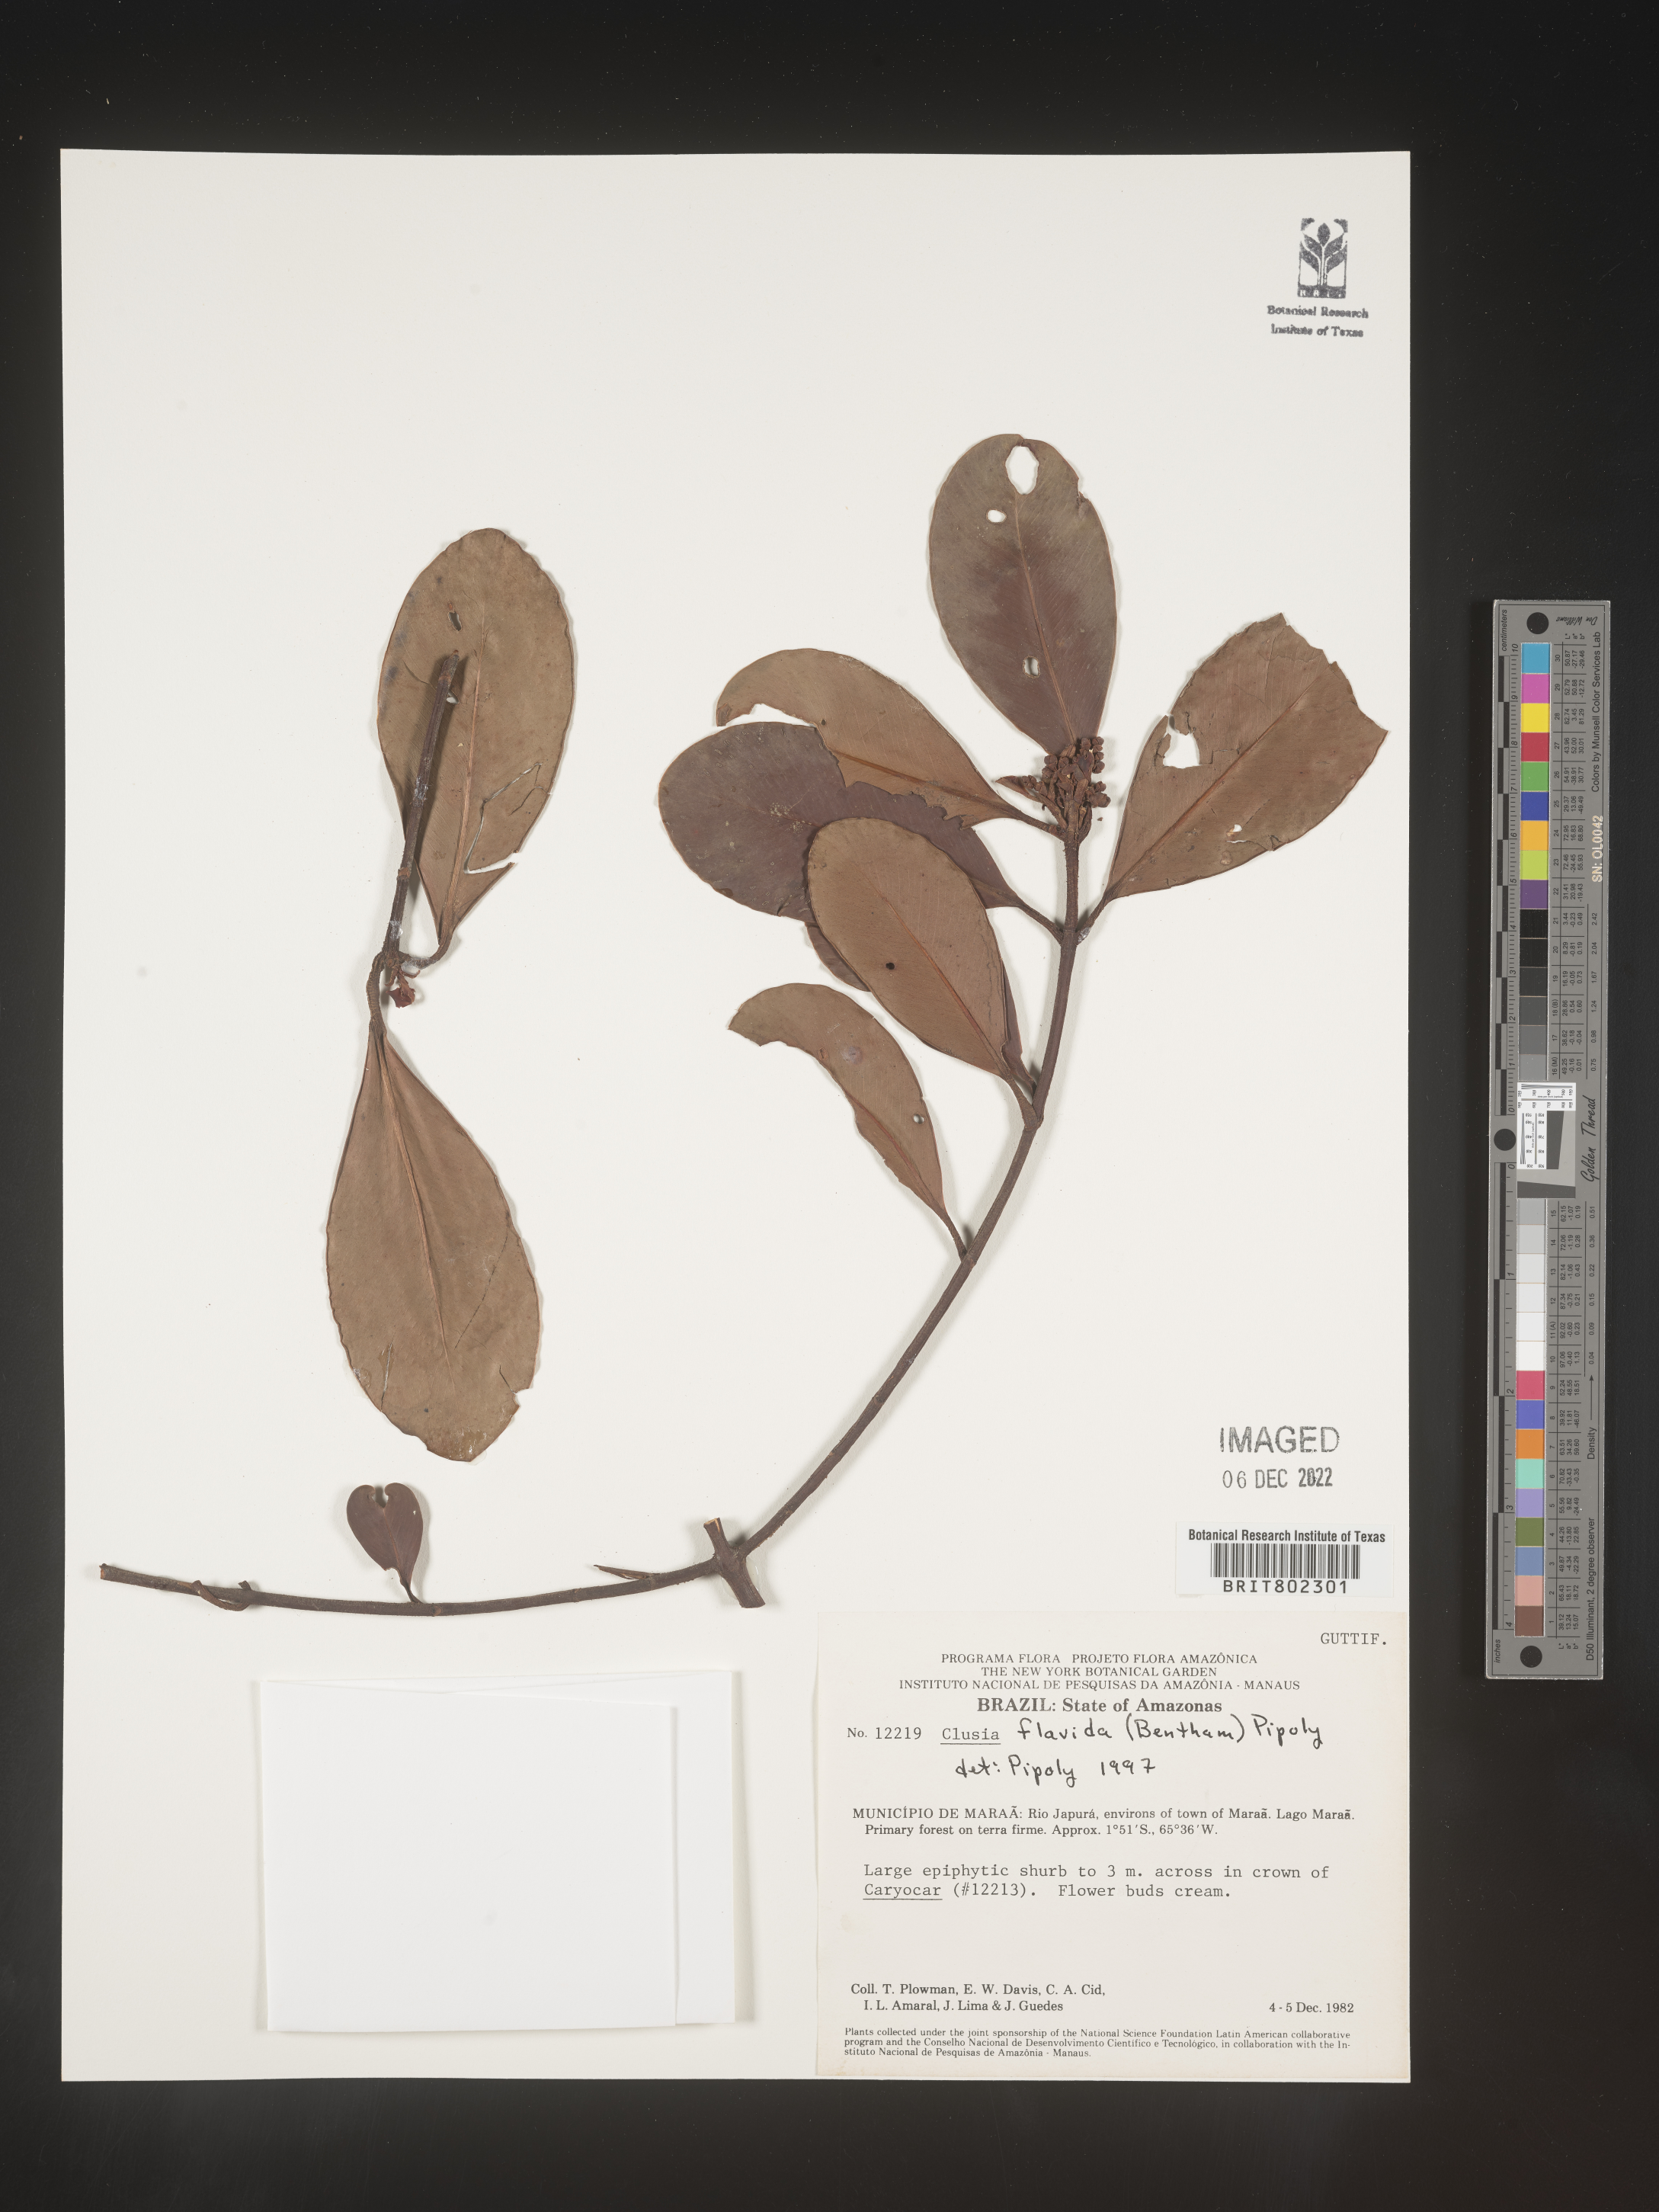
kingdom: Plantae
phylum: Tracheophyta
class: Magnoliopsida
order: Malpighiales
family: Clusiaceae
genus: Clusia
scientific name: Clusia flavida
